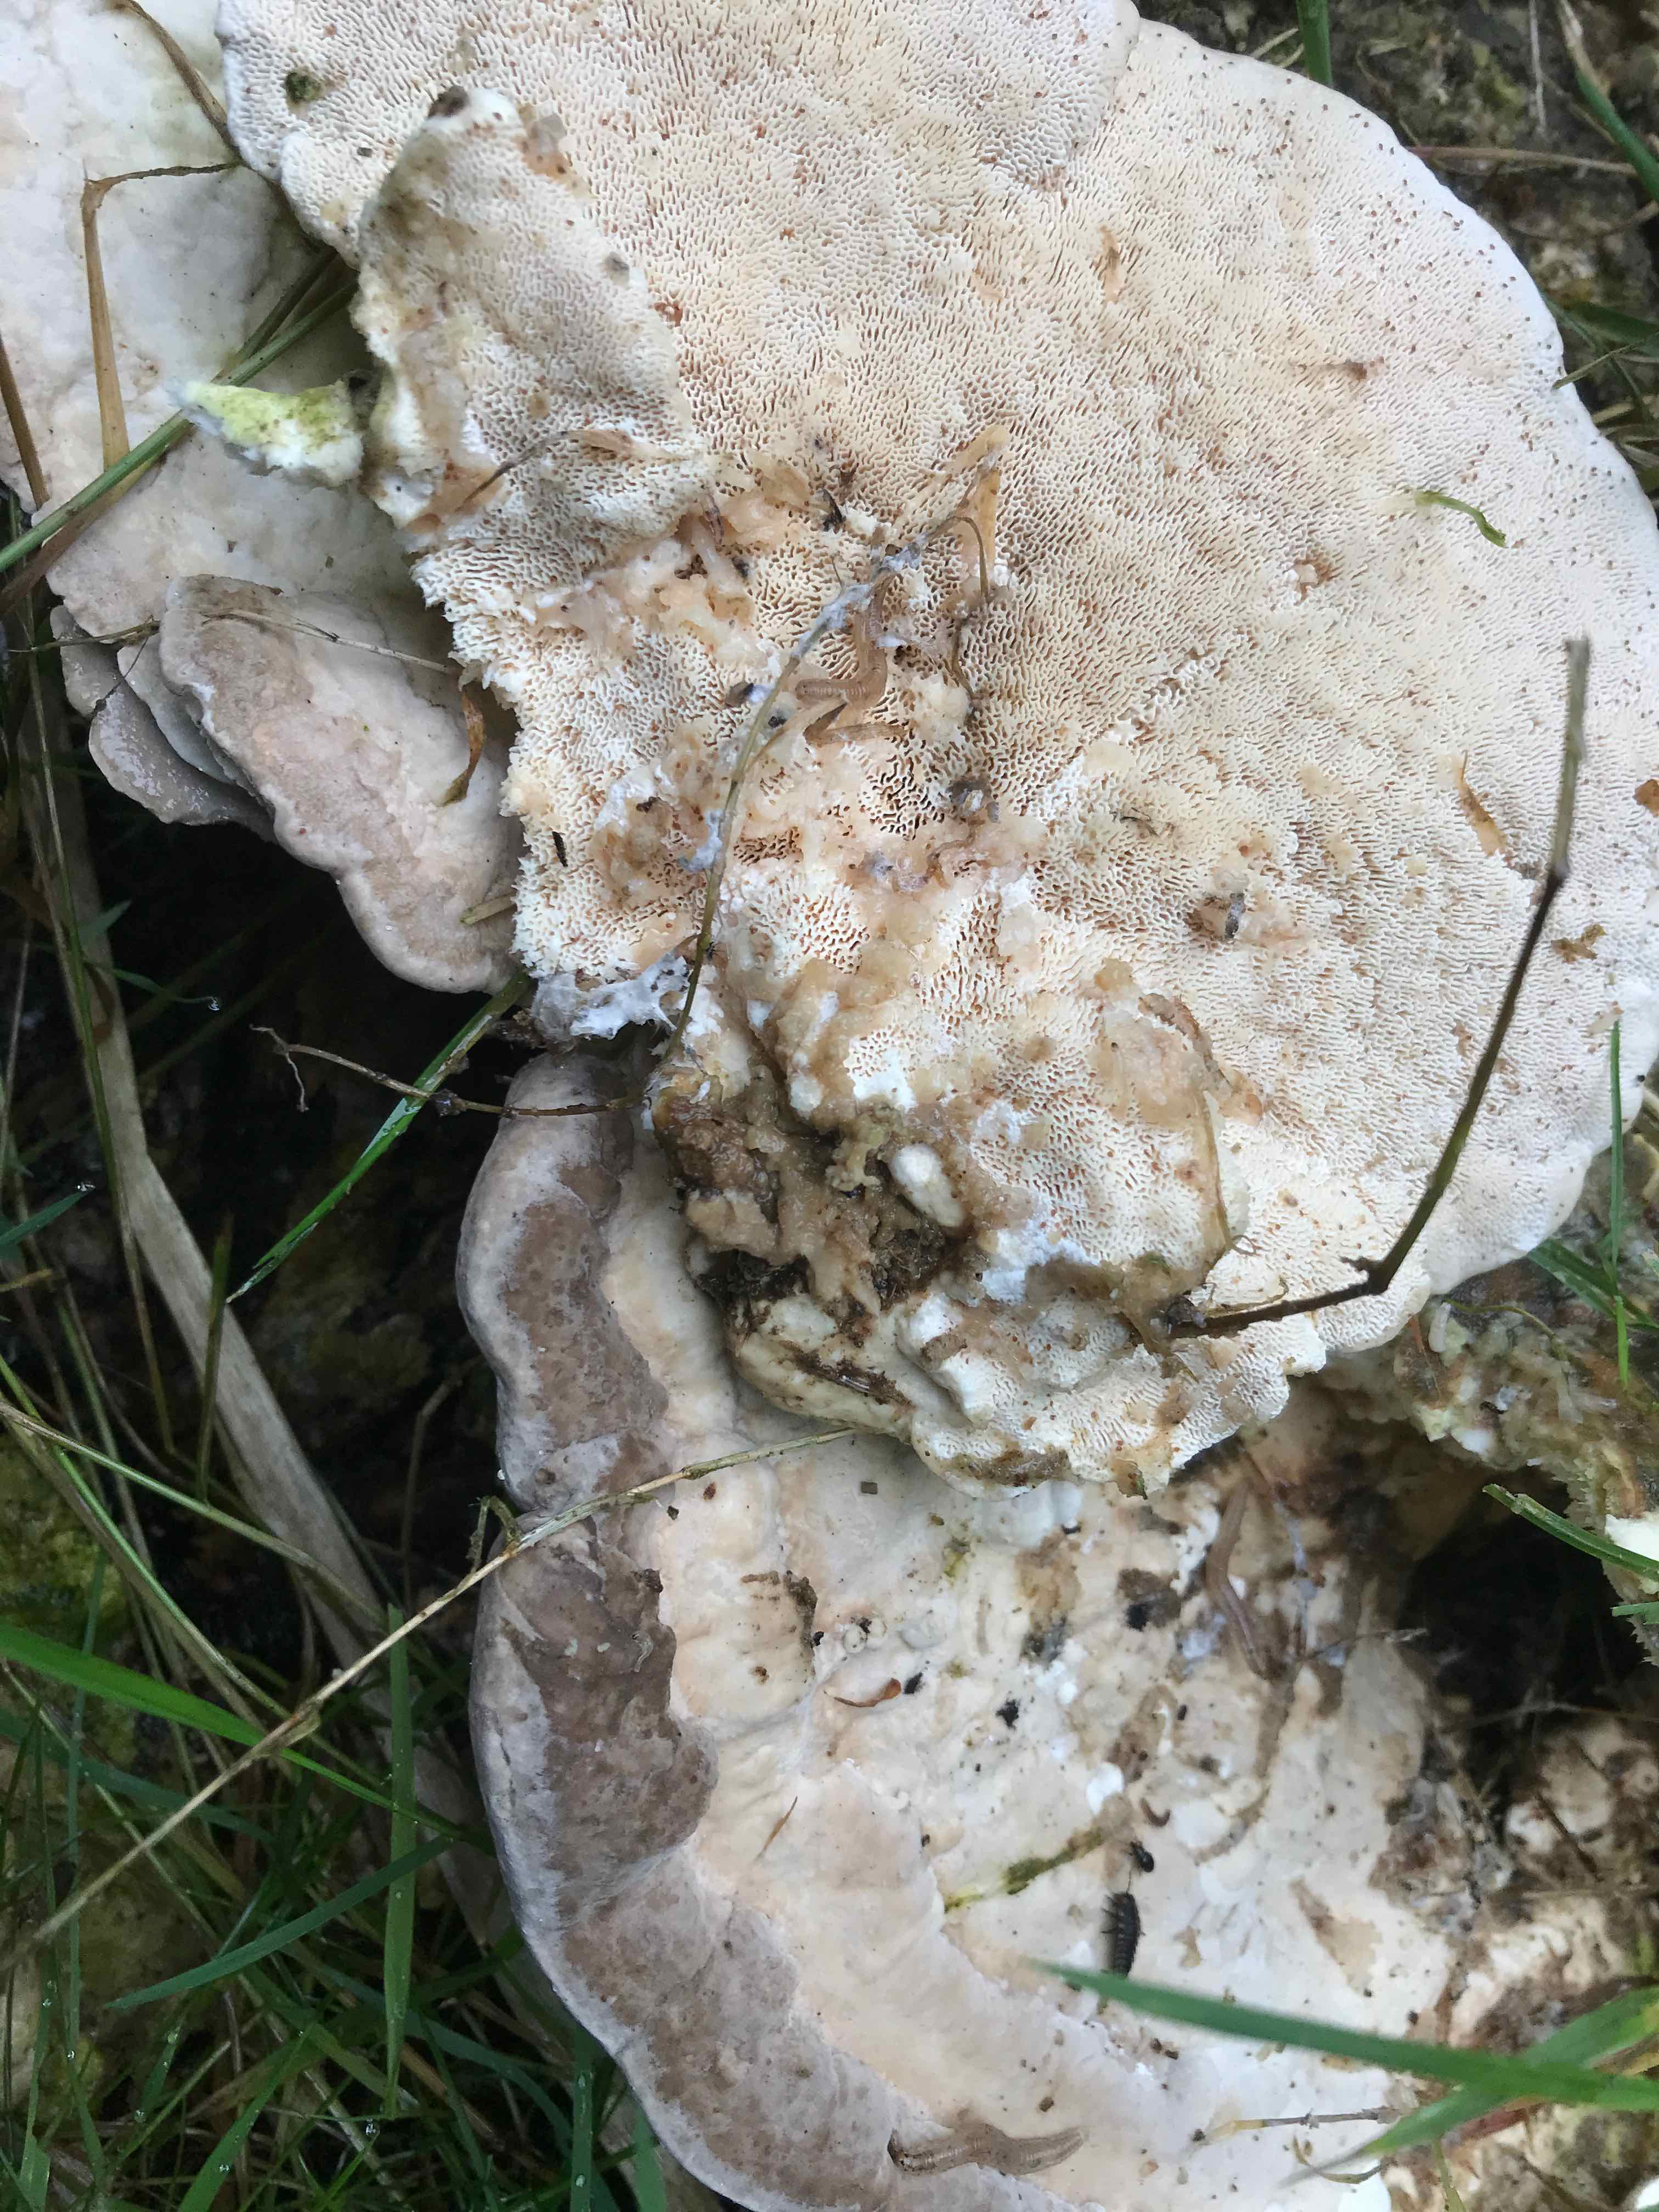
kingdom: Fungi
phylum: Basidiomycota
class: Agaricomycetes
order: Polyporales
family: Polyporaceae
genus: Trametes
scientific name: Trametes gibbosa
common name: puklet læderporesvamp
